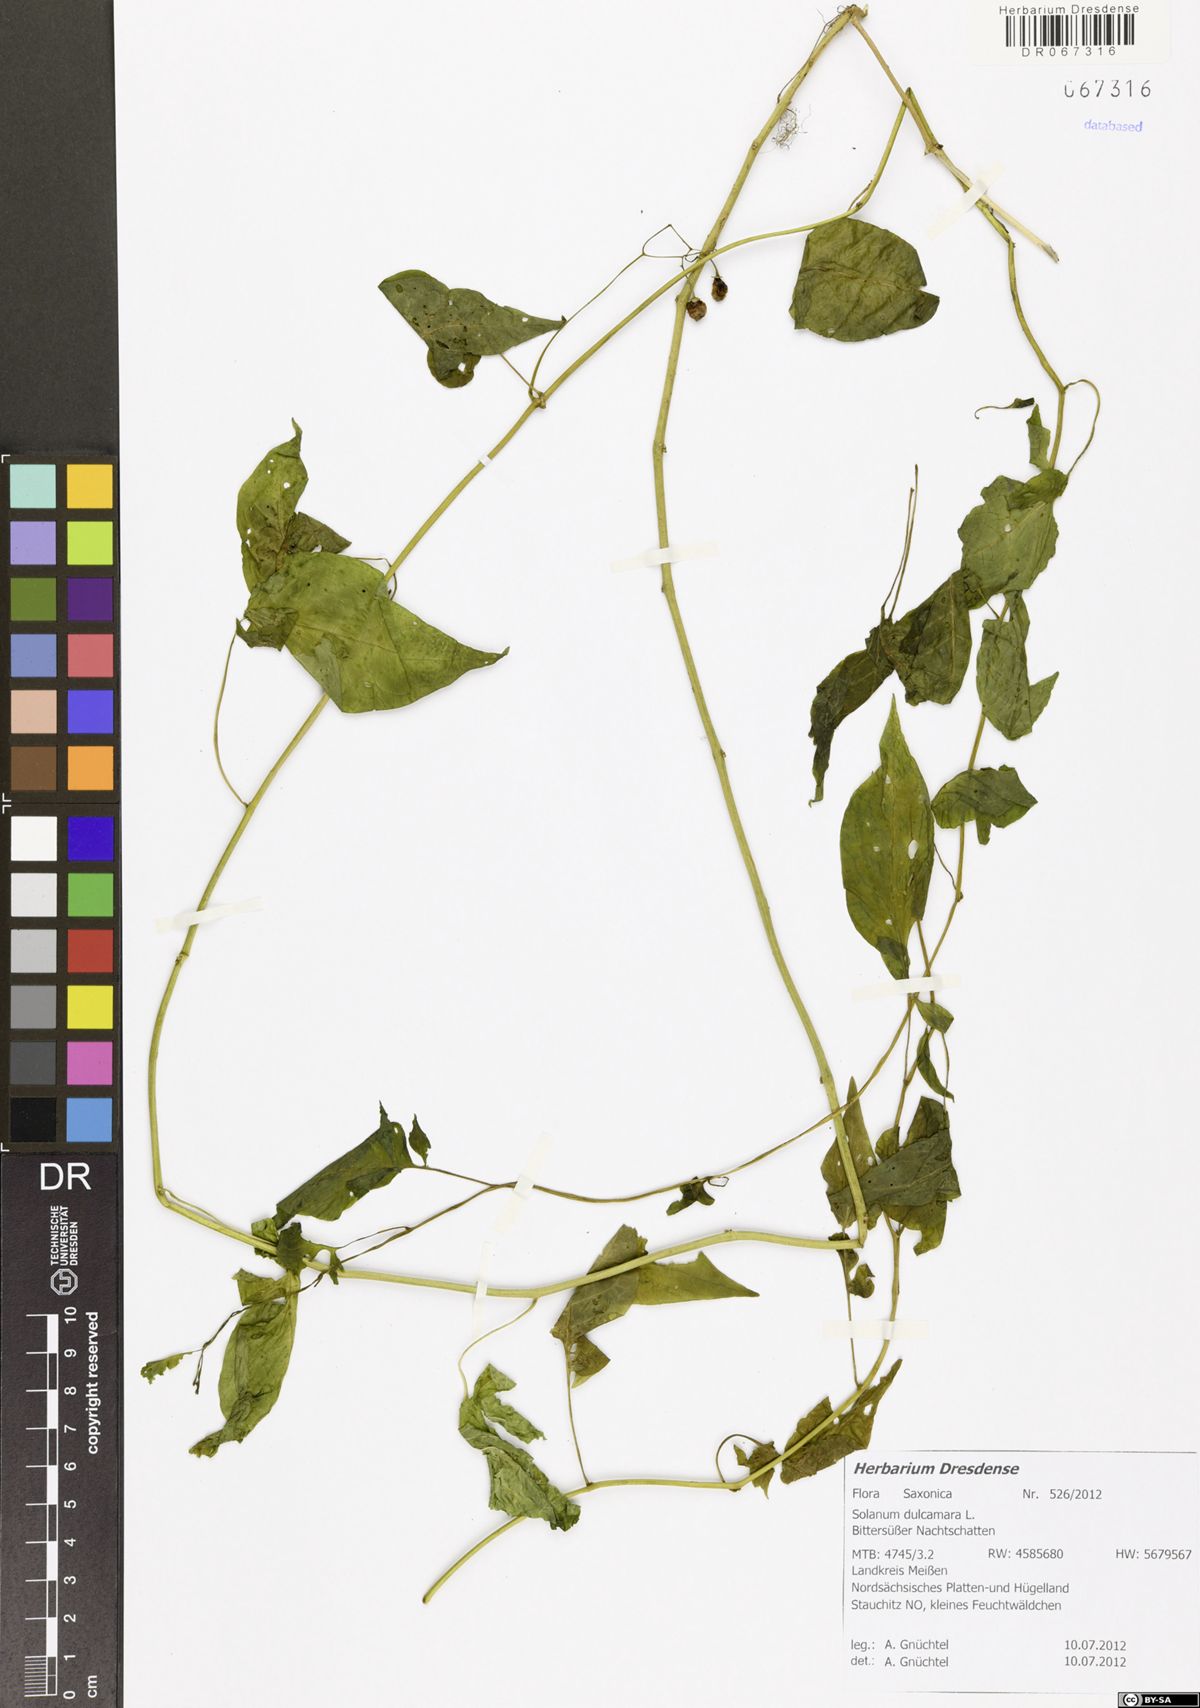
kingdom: Plantae
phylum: Tracheophyta
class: Magnoliopsida
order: Solanales
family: Solanaceae
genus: Solanum
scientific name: Solanum dulcamara
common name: Climbing nightshade
